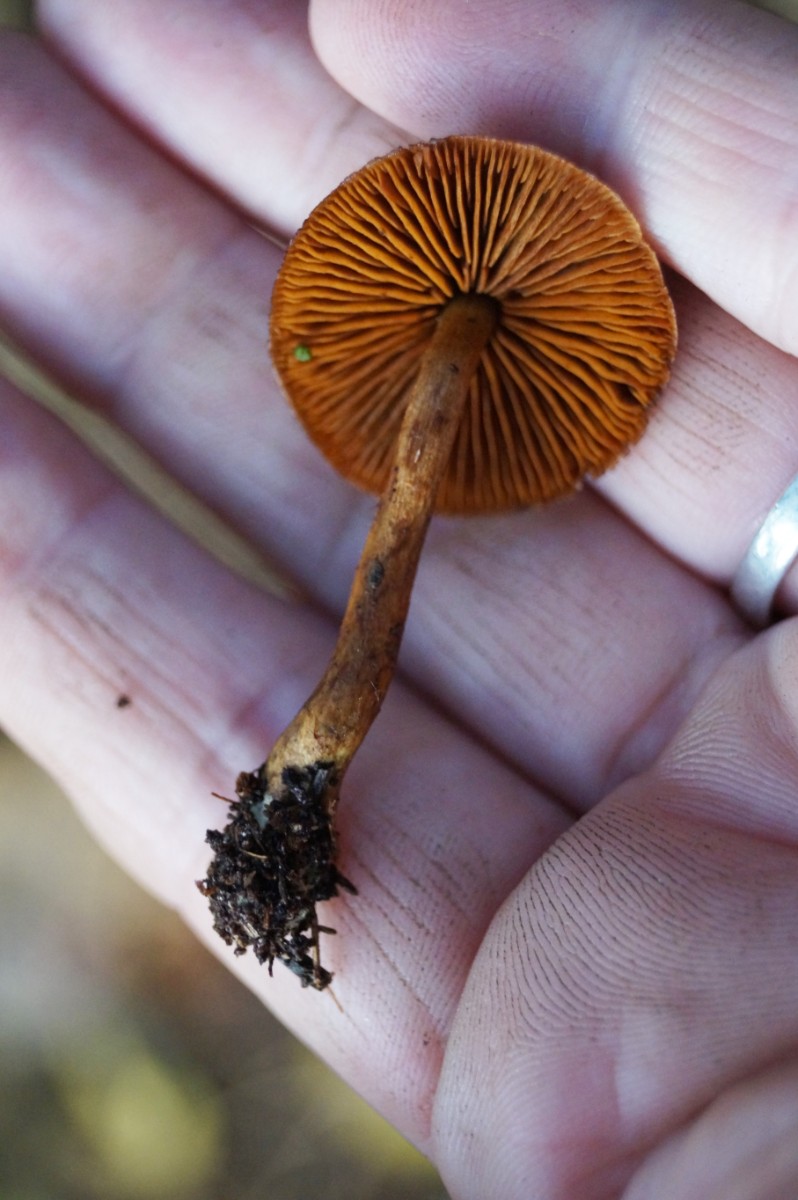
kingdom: Fungi
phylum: Basidiomycota
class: Agaricomycetes
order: Agaricales
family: Cortinariaceae
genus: Cortinarius
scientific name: Cortinarius
